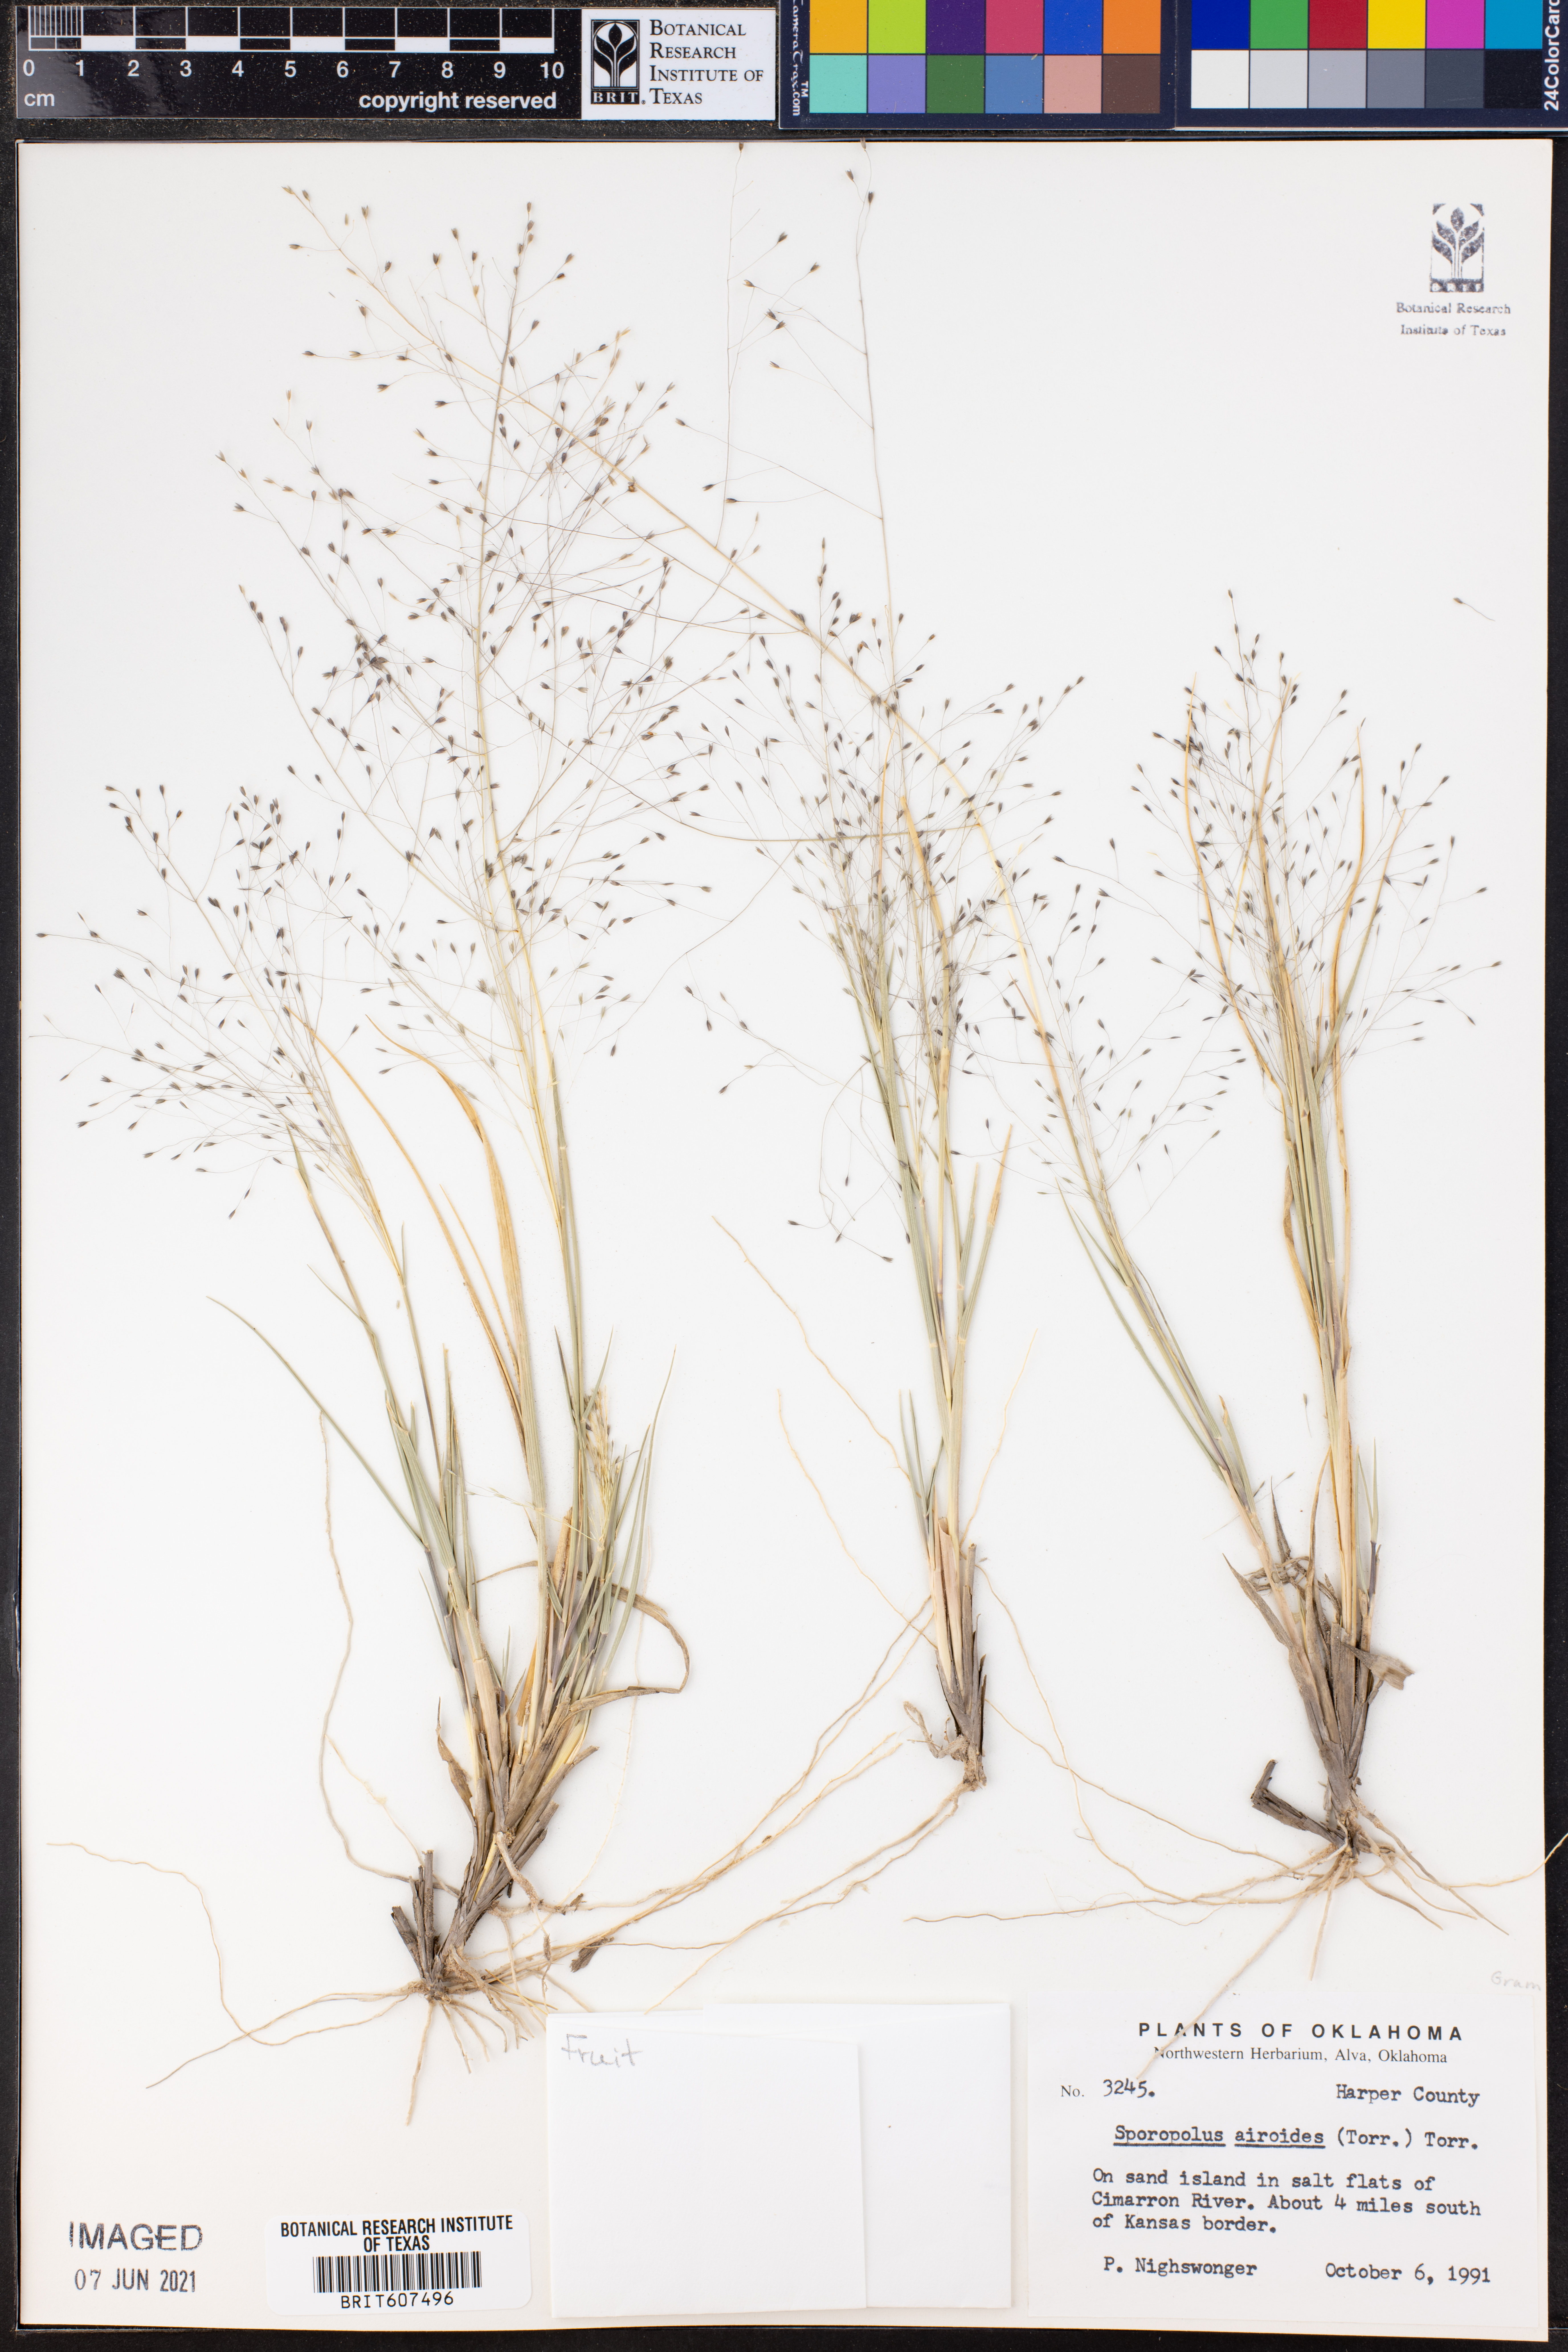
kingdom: Plantae
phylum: Tracheophyta
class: Liliopsida
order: Poales
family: Poaceae
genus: Sporobolus
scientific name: Sporobolus airoides
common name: Alkali sacaton
